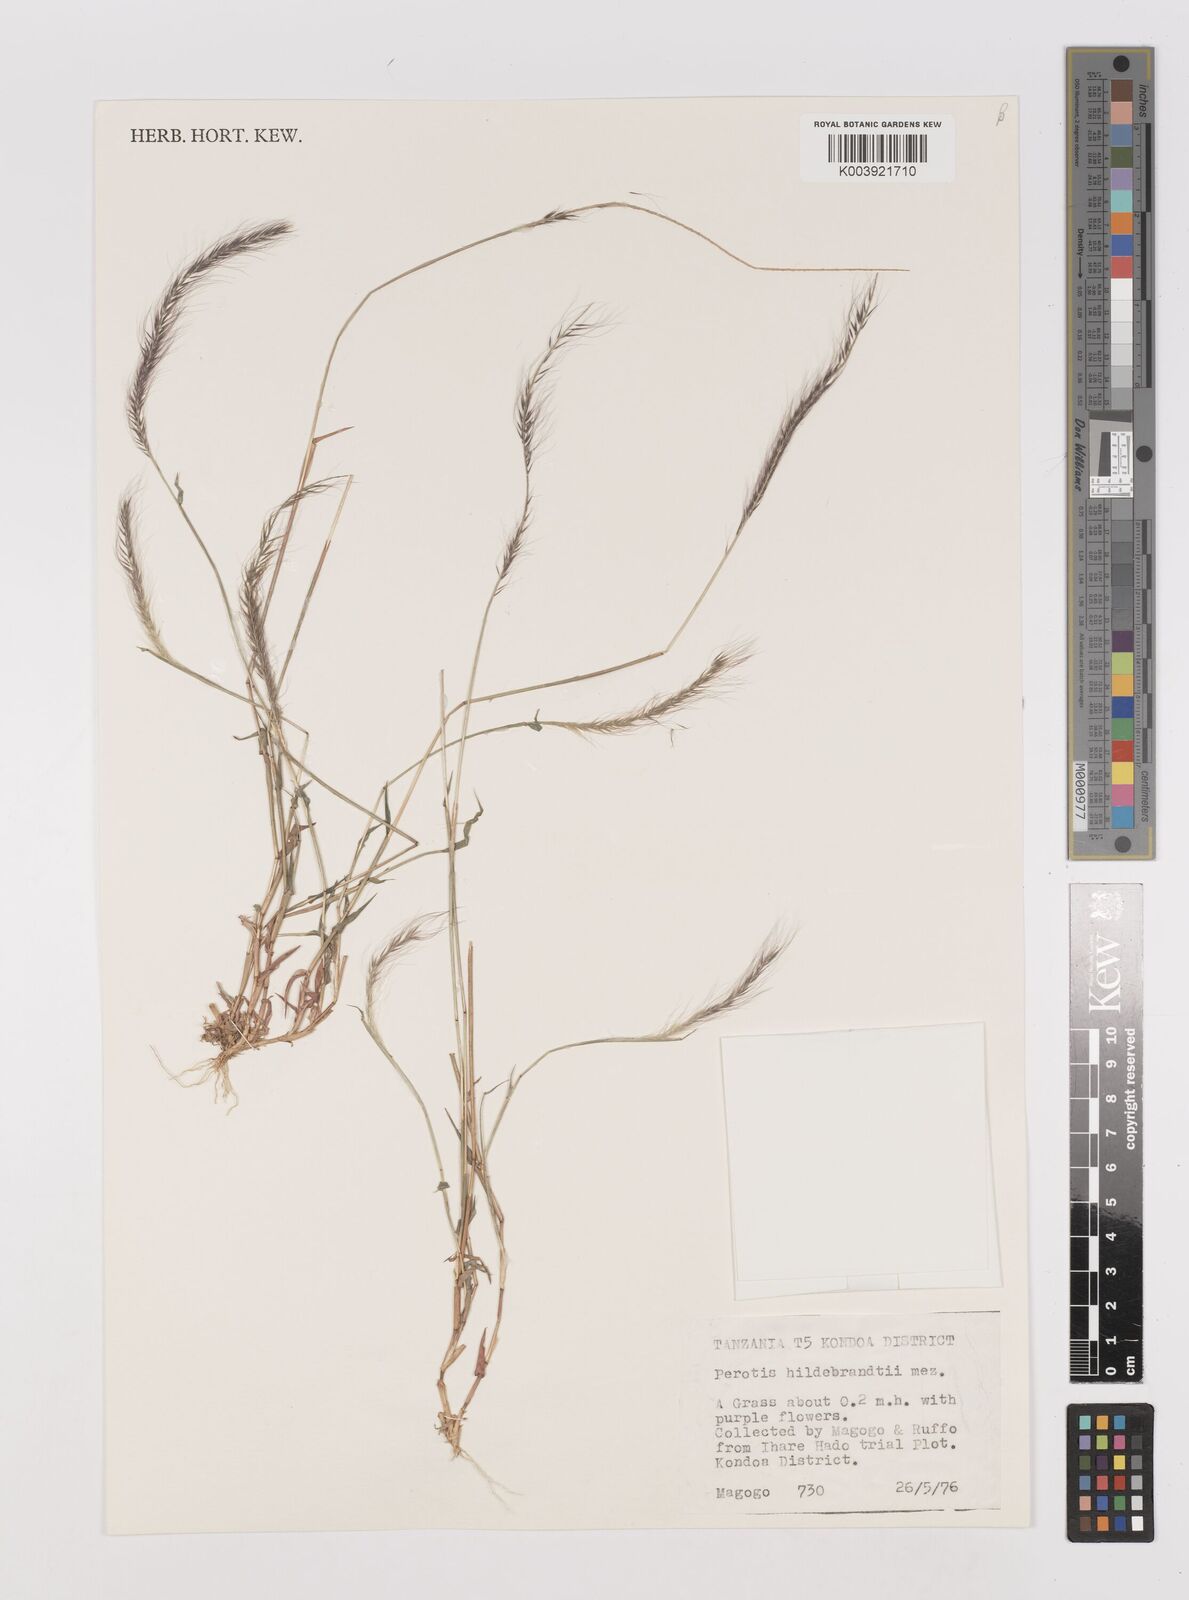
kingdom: Plantae
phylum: Tracheophyta
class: Liliopsida
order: Poales
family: Poaceae
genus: Perotis
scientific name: Perotis hildebrandtii
